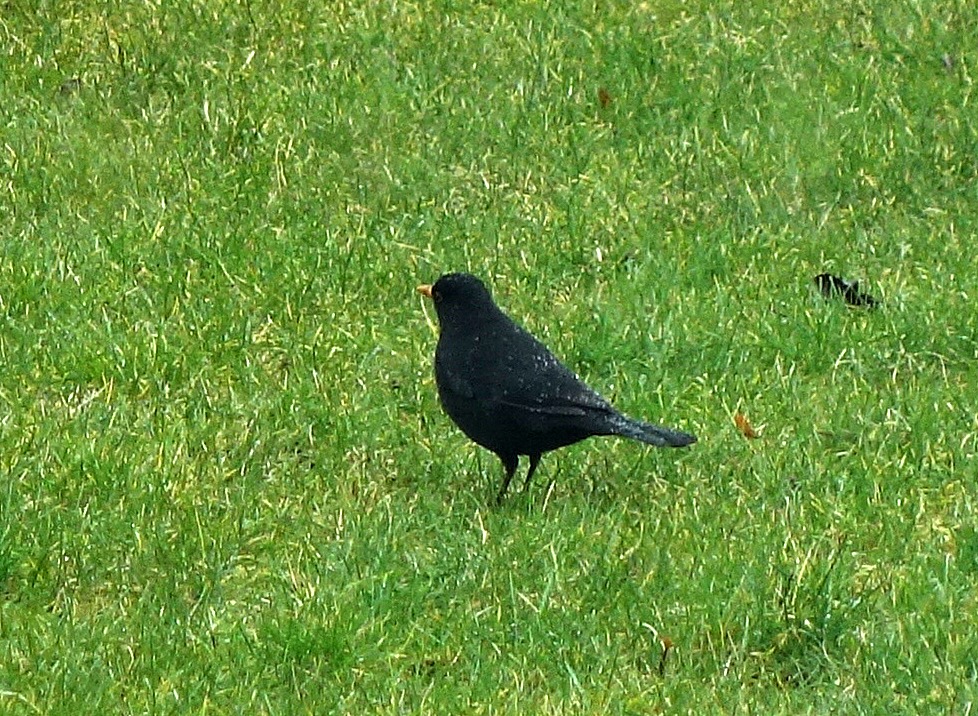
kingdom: Animalia
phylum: Chordata
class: Aves
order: Passeriformes
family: Turdidae
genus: Turdus
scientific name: Turdus merula
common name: Solsort
